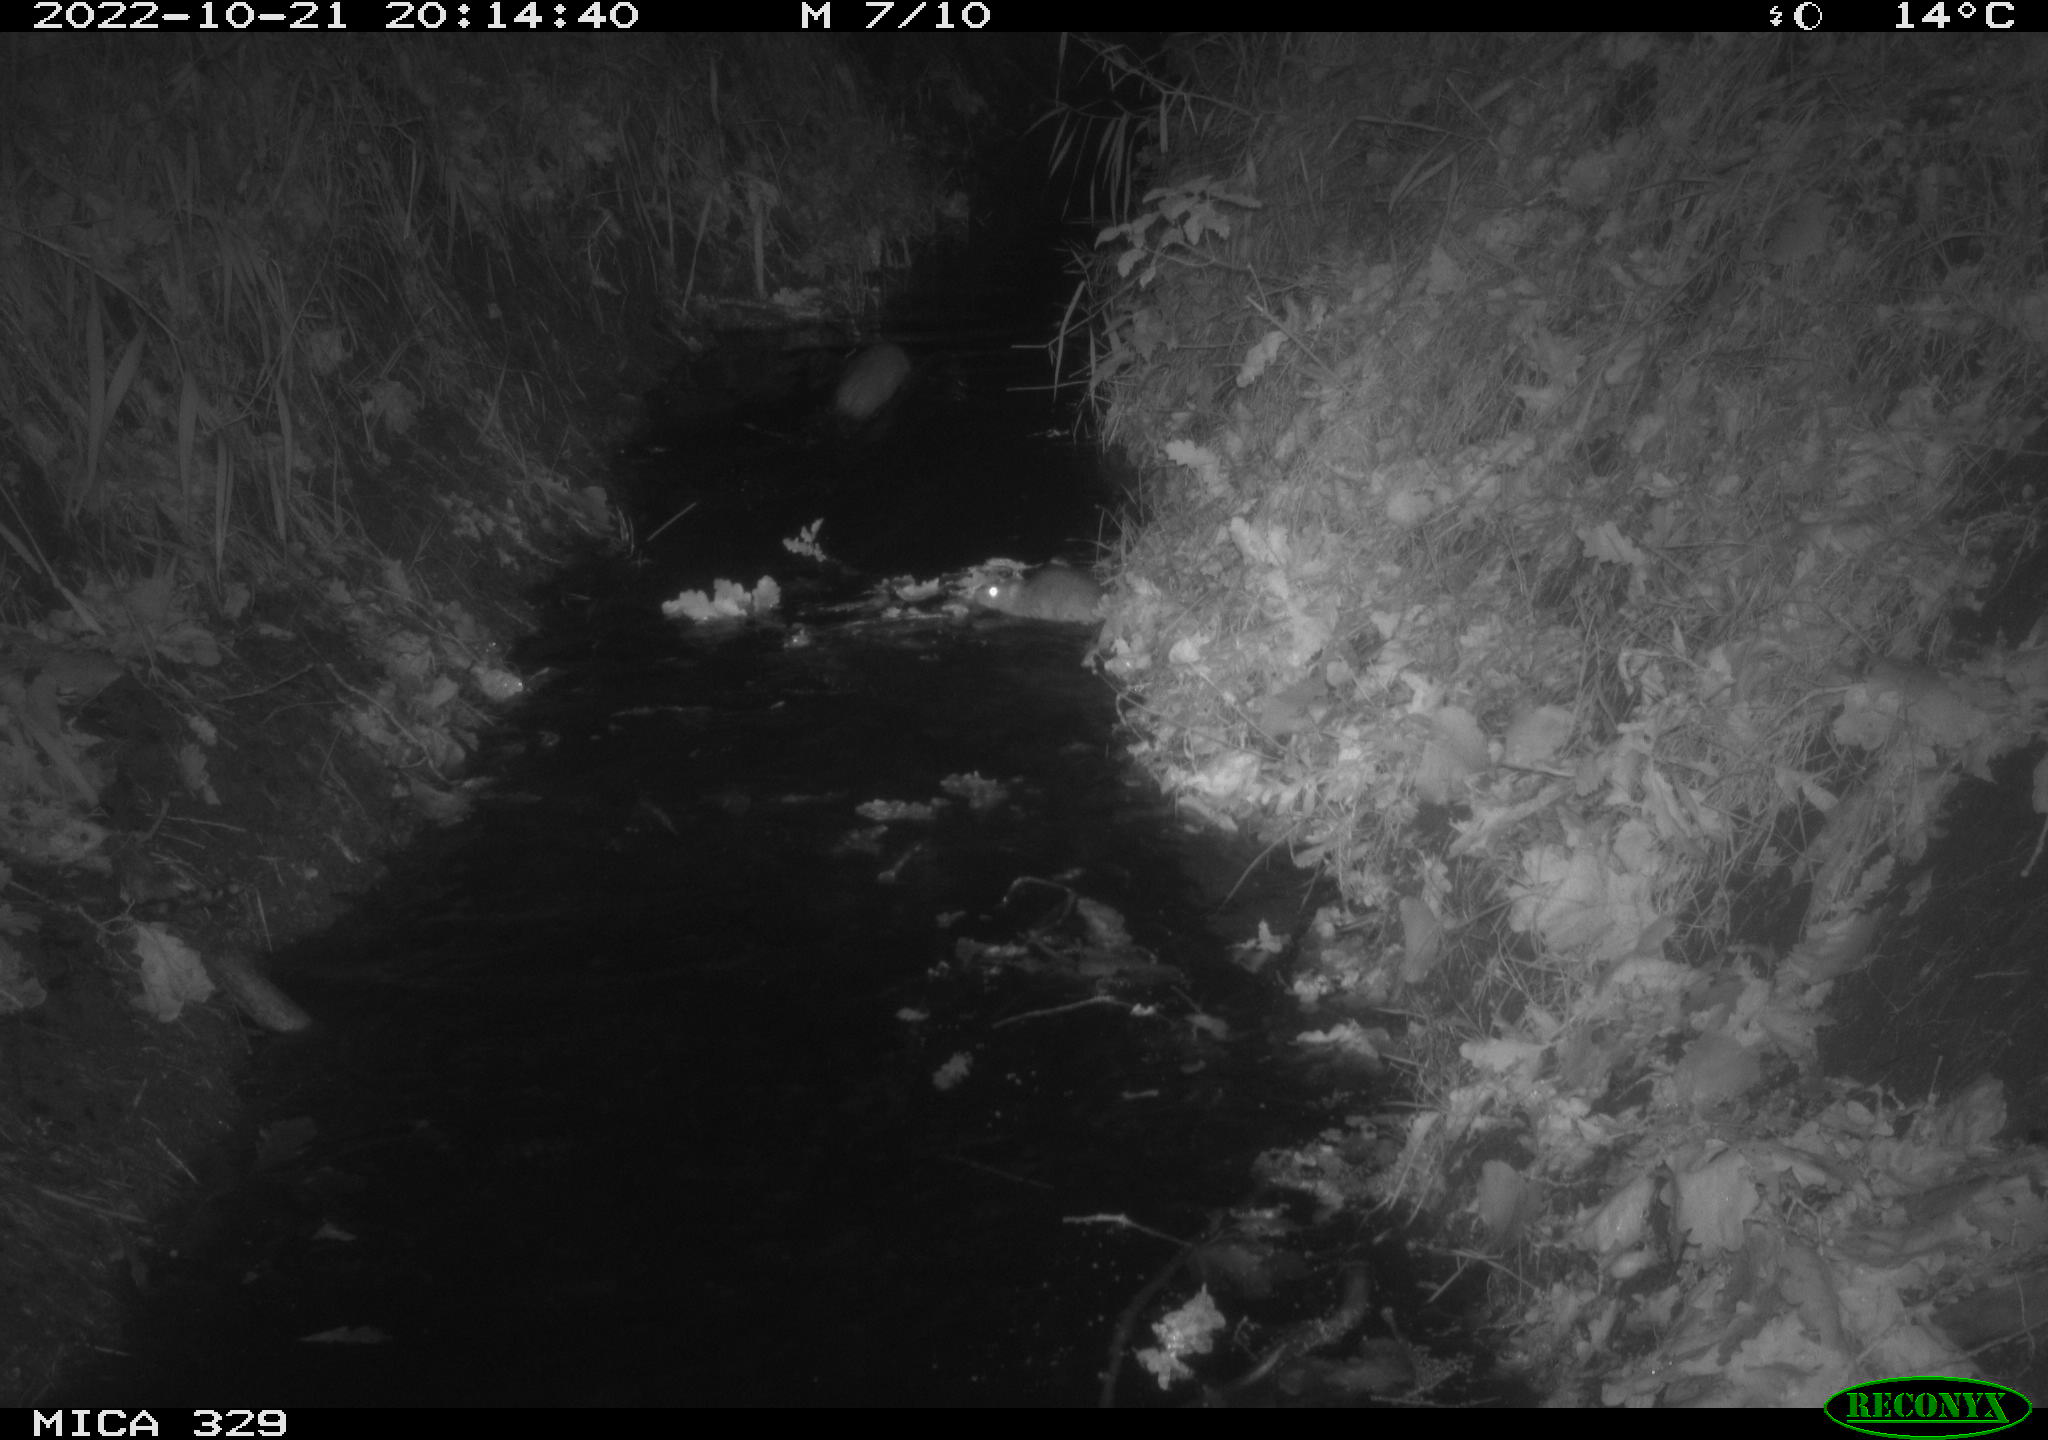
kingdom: Animalia
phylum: Chordata
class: Mammalia
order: Rodentia
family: Muridae
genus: Rattus
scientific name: Rattus norvegicus
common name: Brown rat
